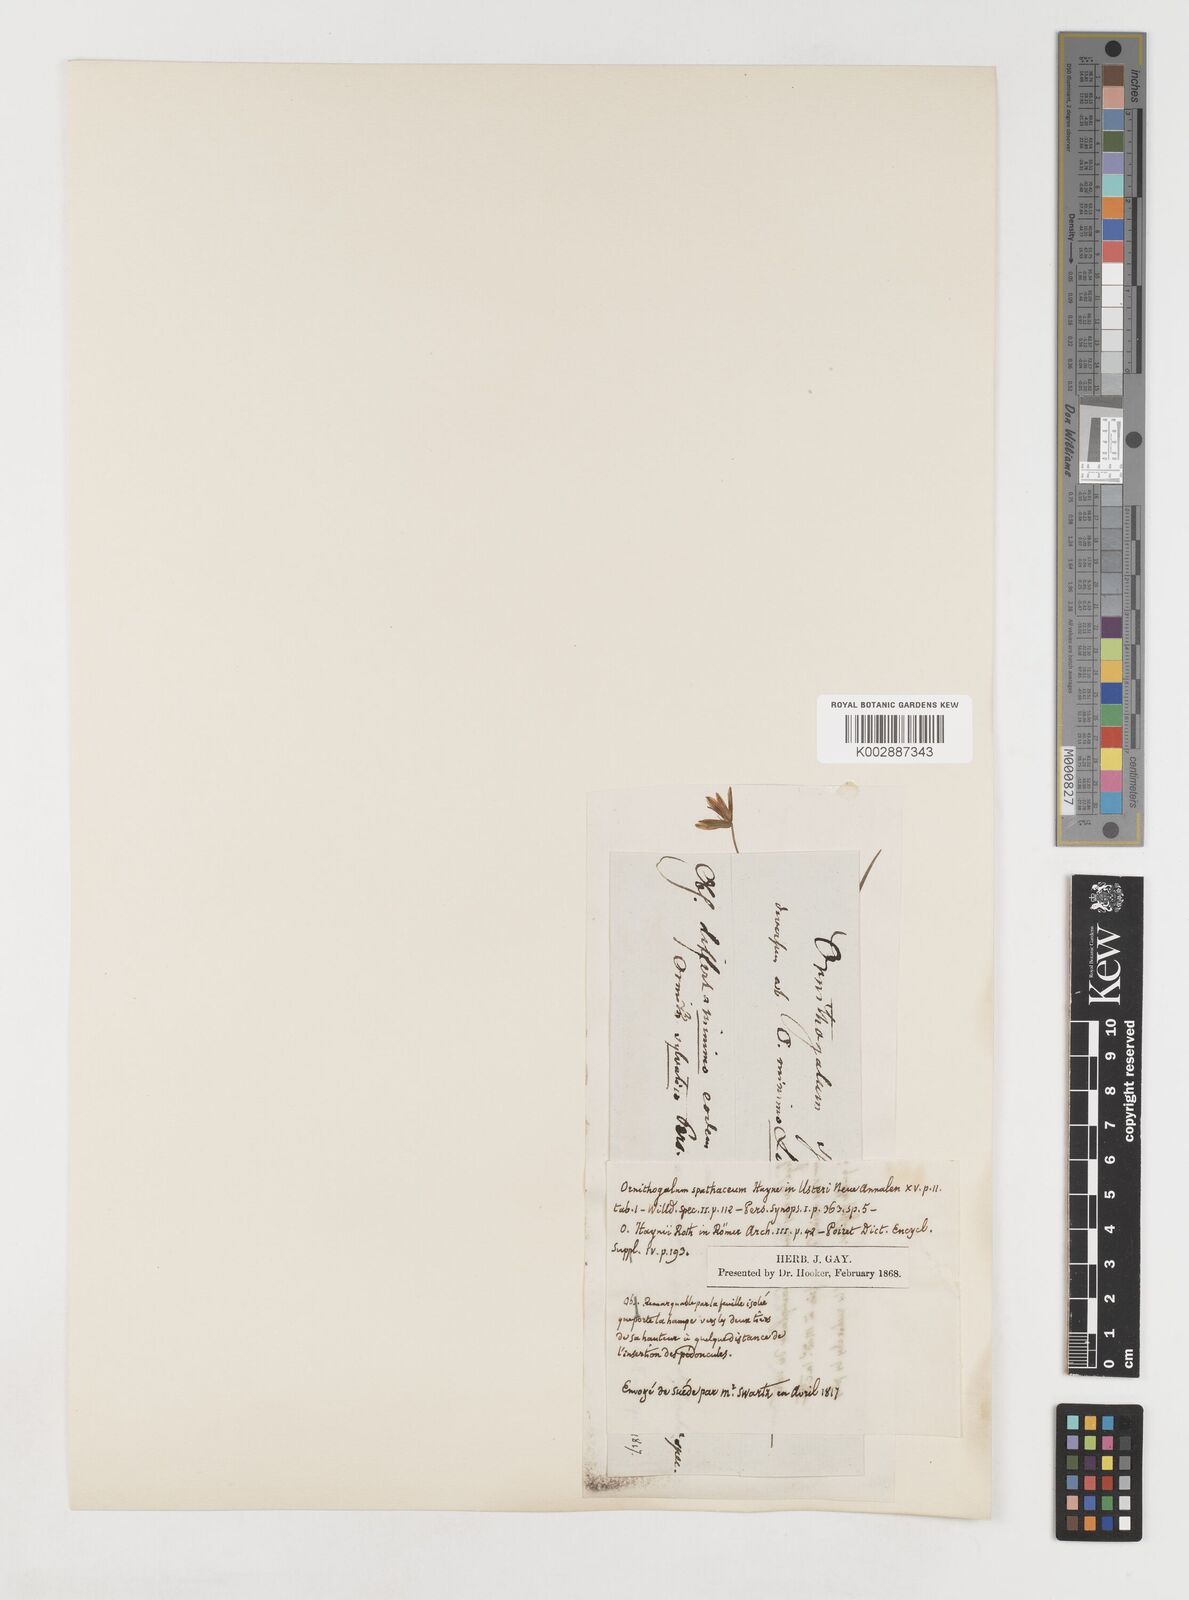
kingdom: Plantae
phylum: Tracheophyta
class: Liliopsida
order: Liliales
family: Liliaceae
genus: Gagea
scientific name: Gagea spathacea
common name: Belgian gagea
